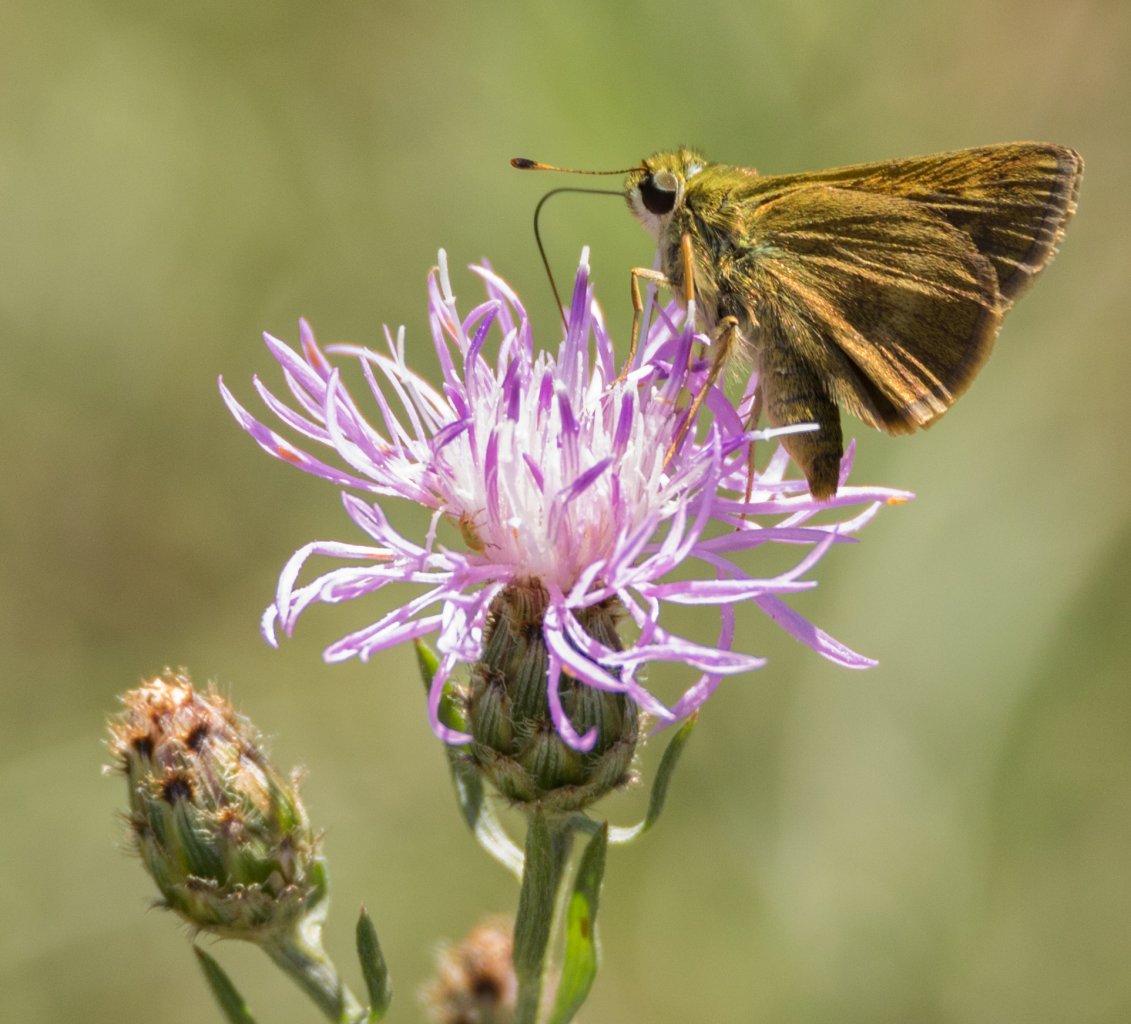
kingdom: Animalia
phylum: Arthropoda
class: Insecta
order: Lepidoptera
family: Hesperiidae
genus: Polites
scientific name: Polites egeremet
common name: Northern Broken-Dash
